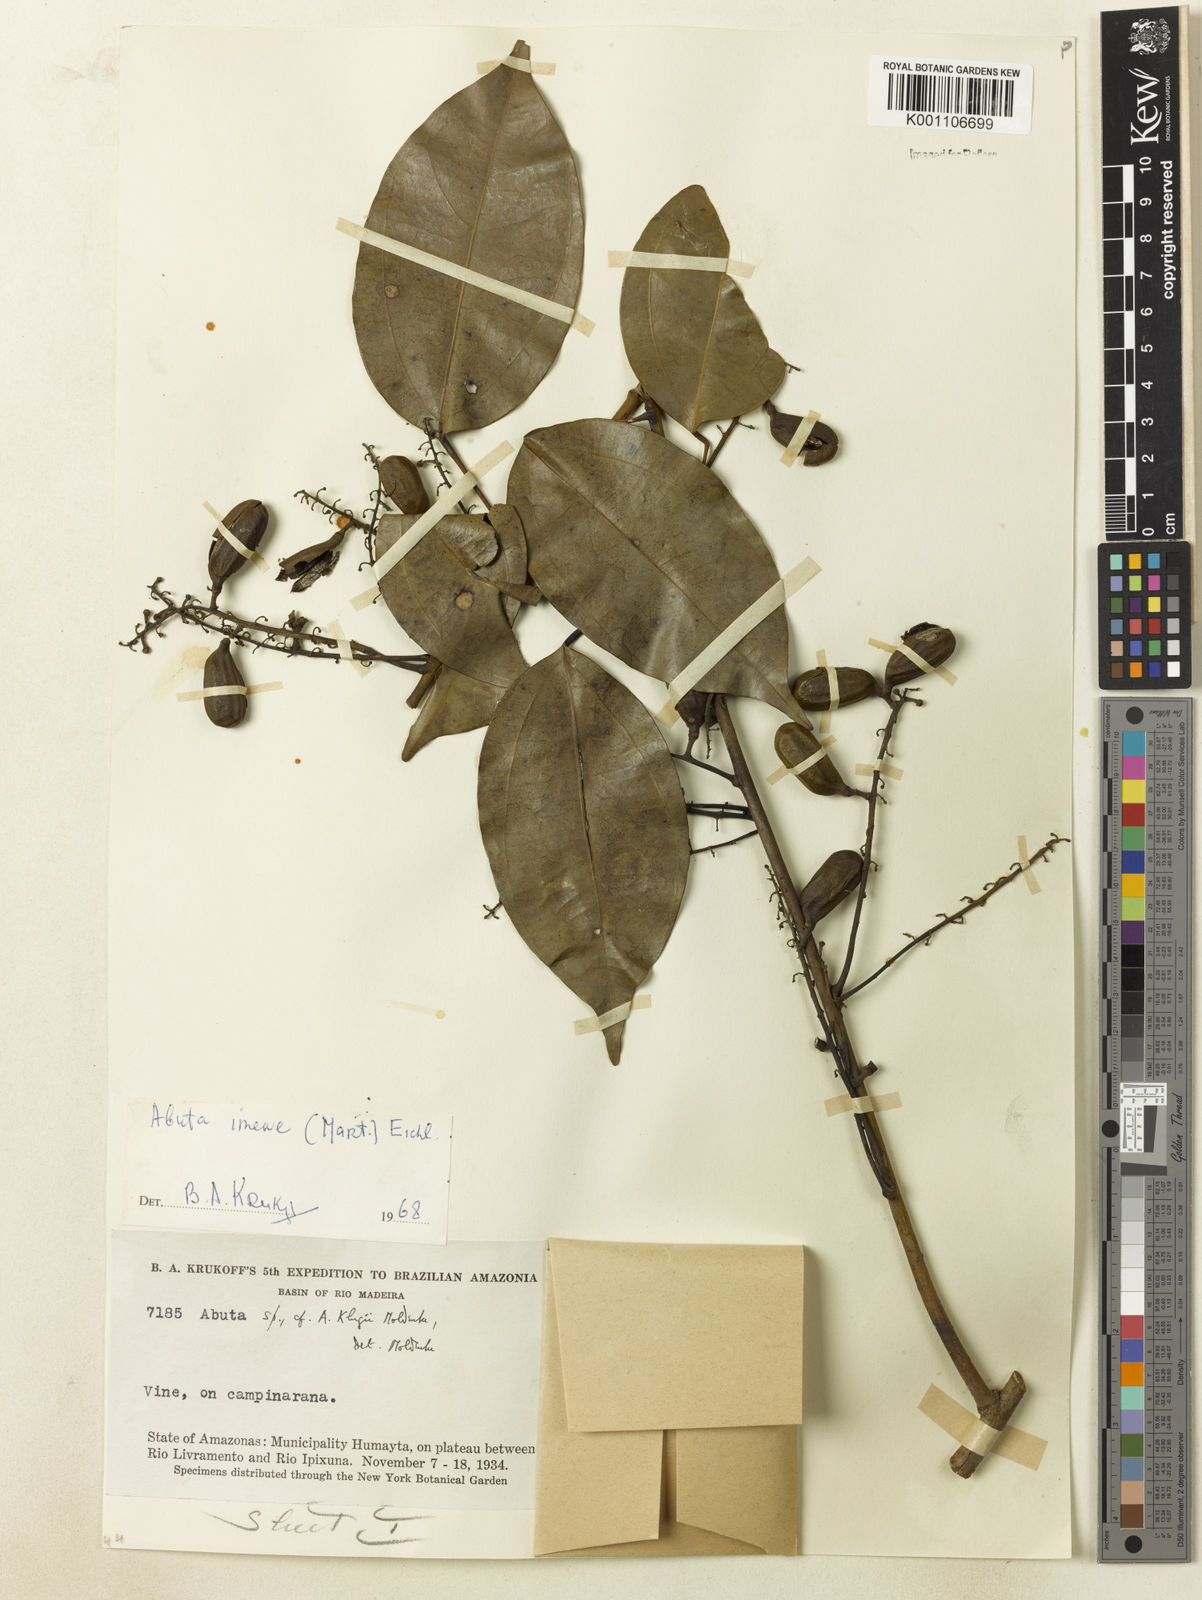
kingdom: Plantae
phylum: Tracheophyta
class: Magnoliopsida
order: Ranunculales
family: Menispermaceae
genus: Abuta
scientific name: Abuta imene
